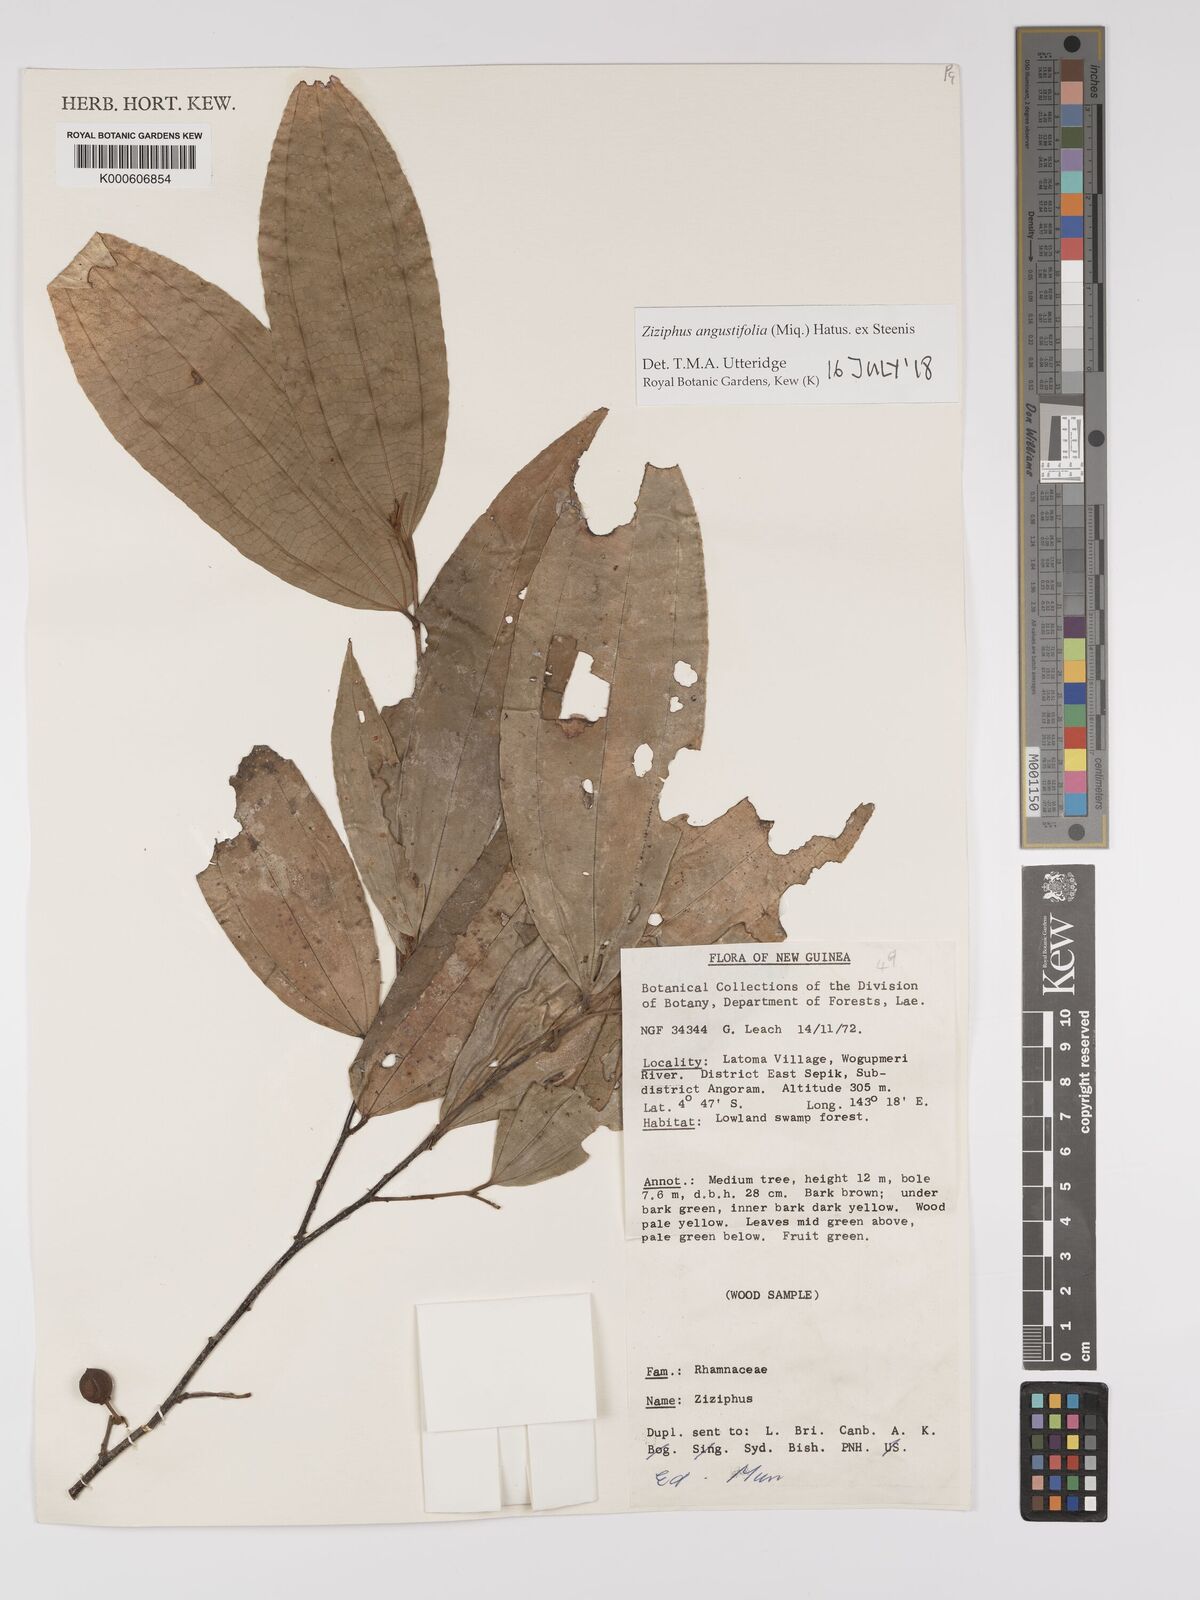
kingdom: Plantae
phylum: Tracheophyta
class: Magnoliopsida
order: Rosales
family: Rhamnaceae
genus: Ziziphus
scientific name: Ziziphus angustifolia
